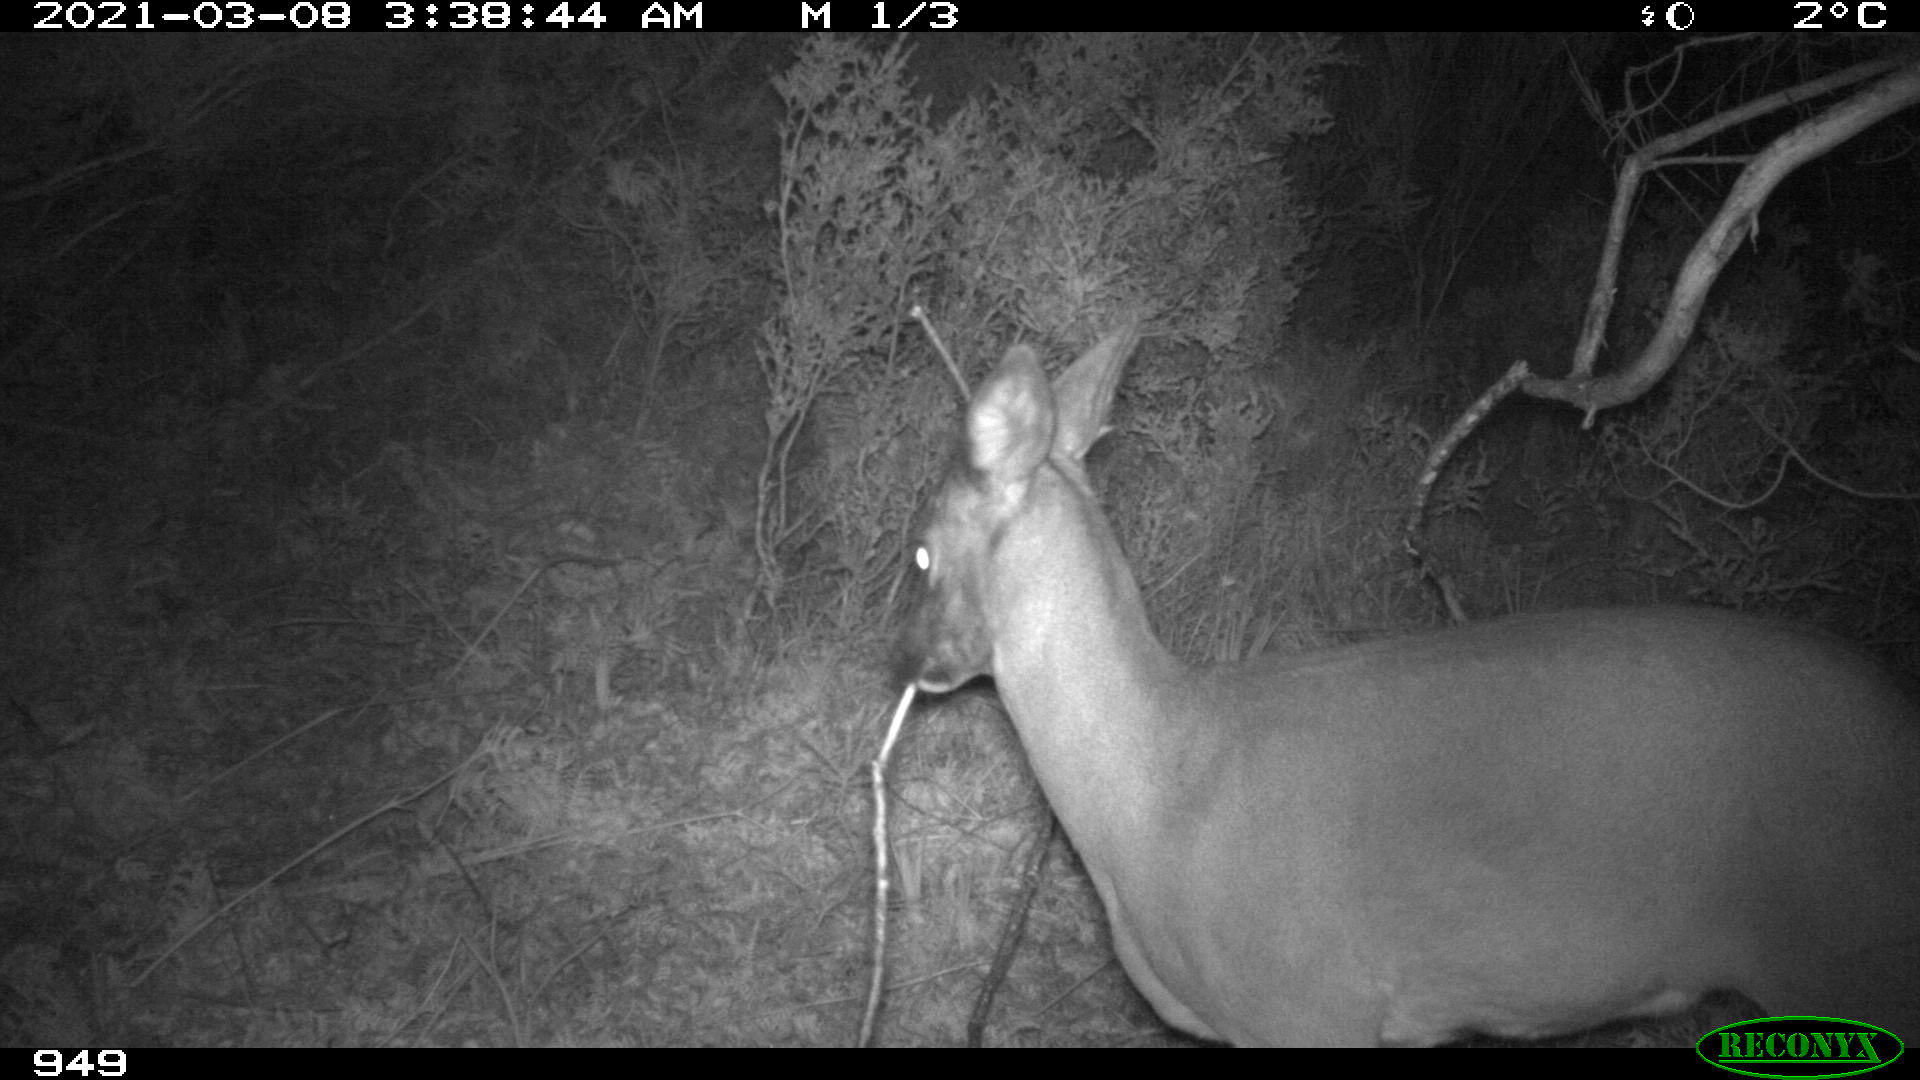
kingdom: Animalia
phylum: Chordata
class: Mammalia
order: Artiodactyla
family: Cervidae
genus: Capreolus
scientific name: Capreolus capreolus
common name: Western roe deer
